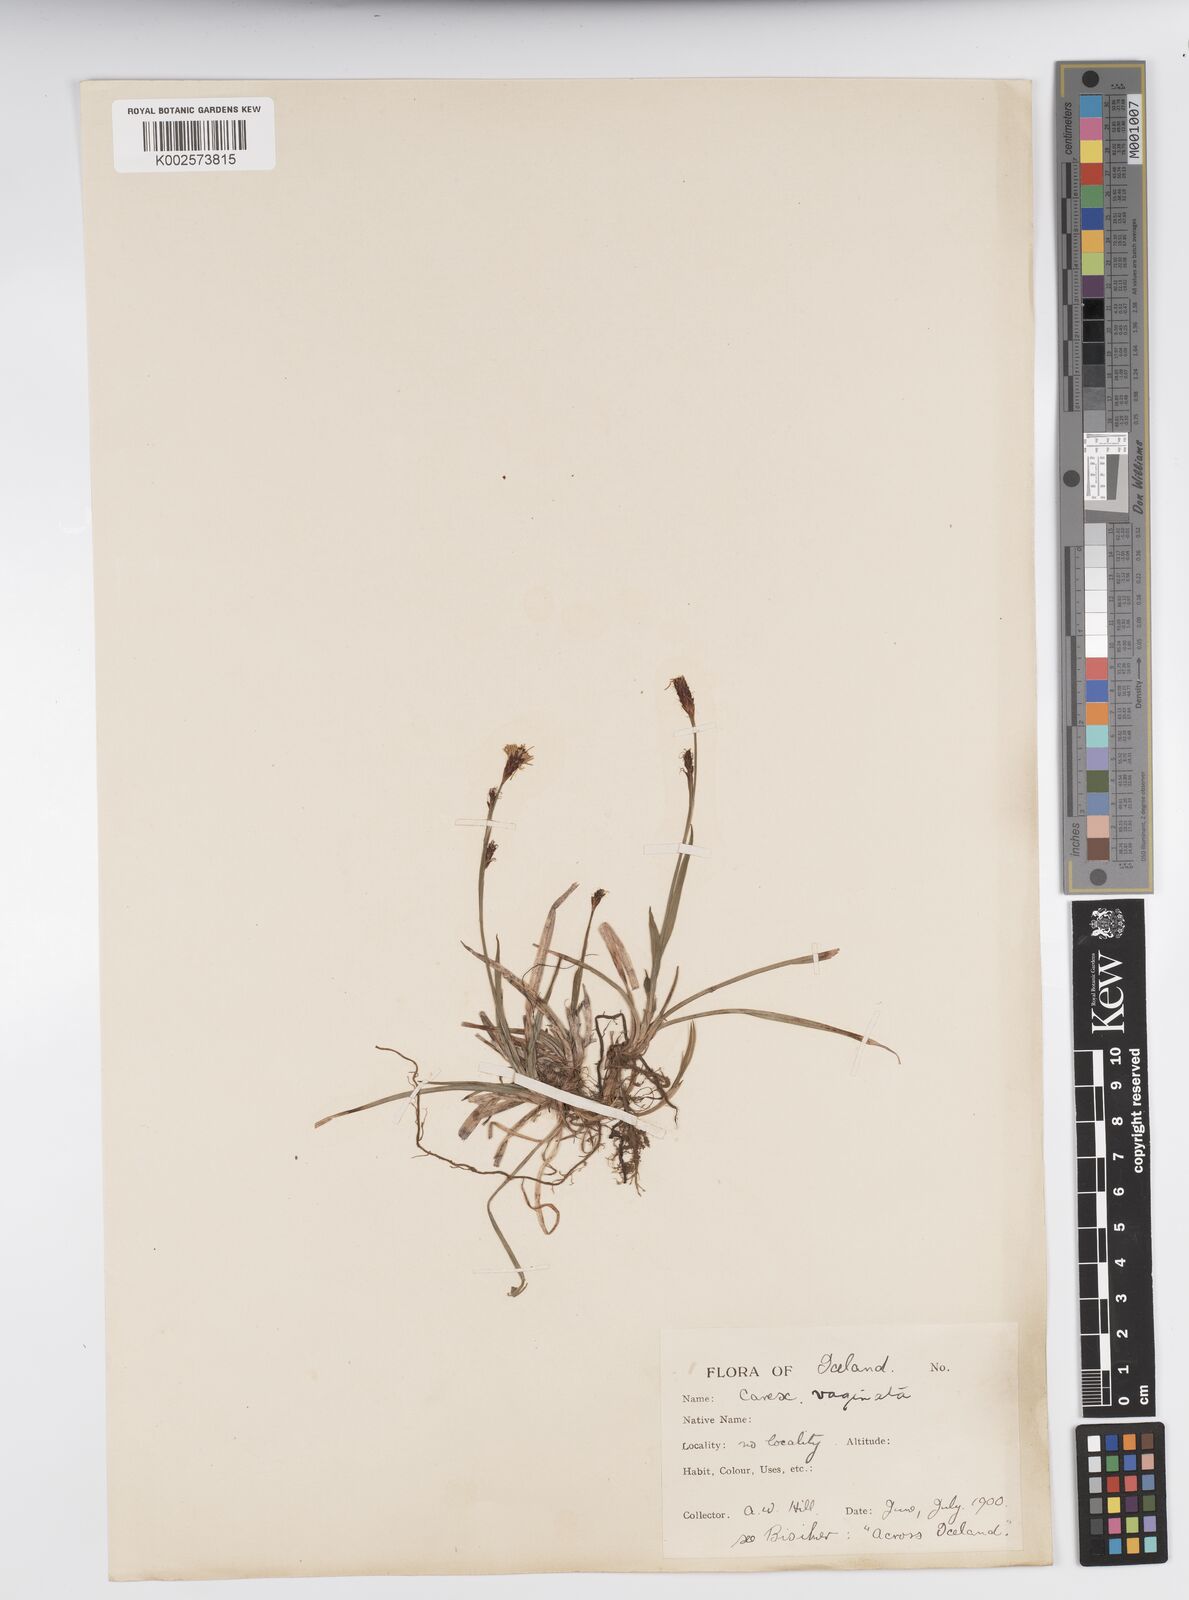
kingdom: Plantae
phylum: Tracheophyta
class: Liliopsida
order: Poales
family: Cyperaceae
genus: Carex
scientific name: Carex vaginata
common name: Sheathed sedge
